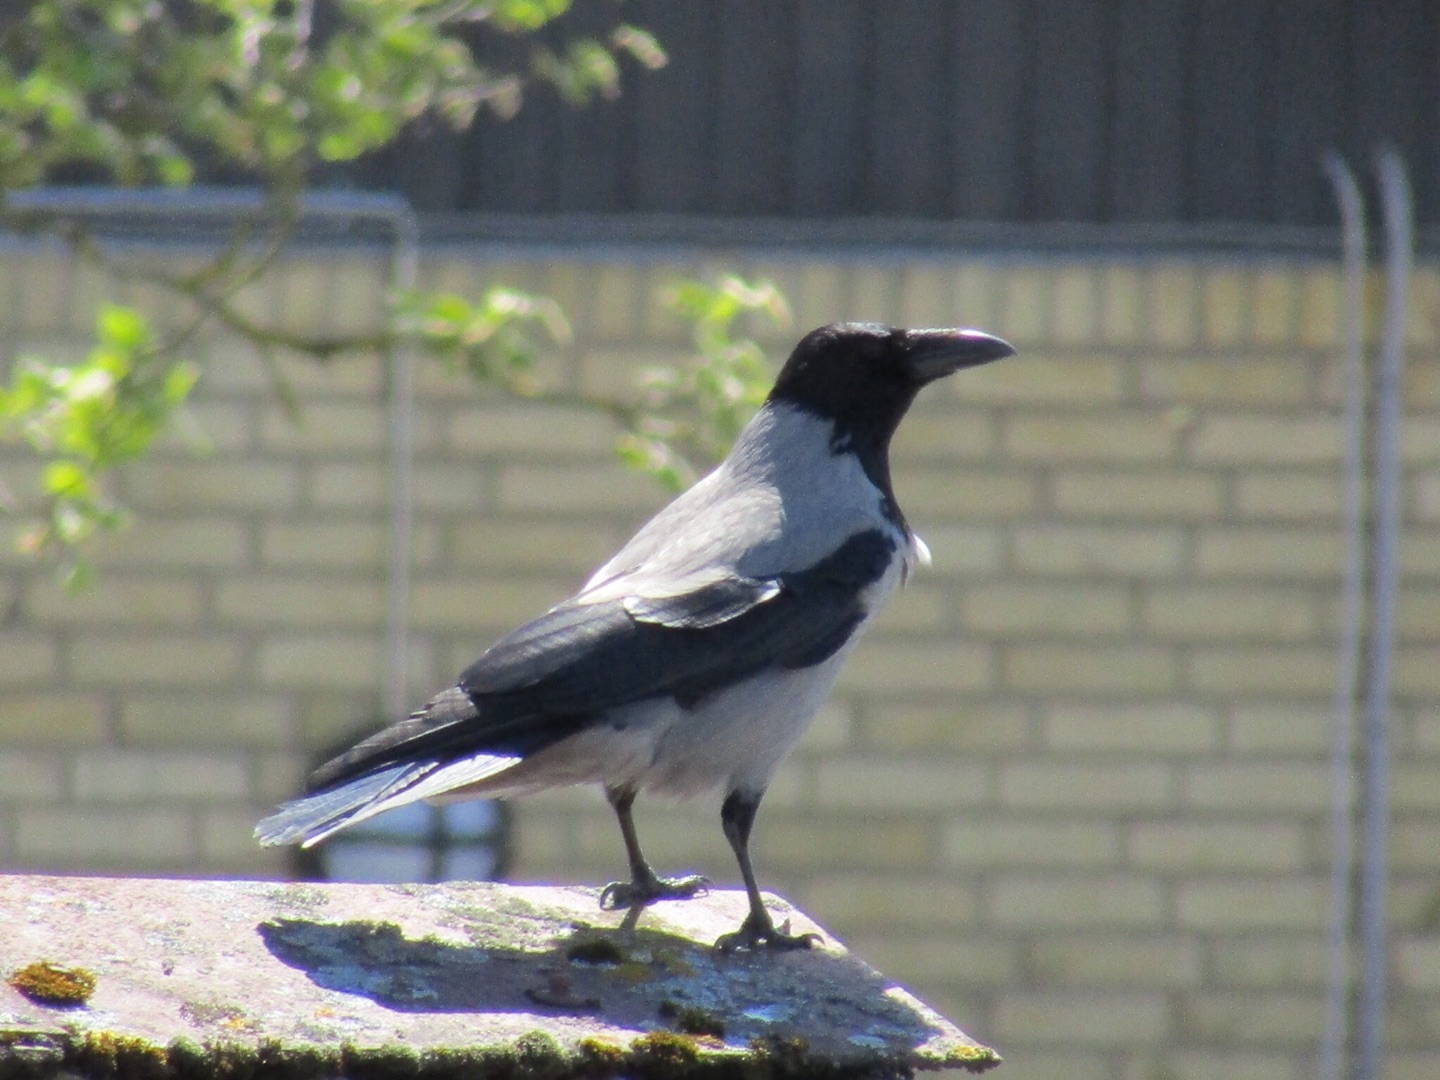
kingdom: Animalia
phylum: Chordata
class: Aves
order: Passeriformes
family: Corvidae
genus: Corvus
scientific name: Corvus cornix
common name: Gråkrage
